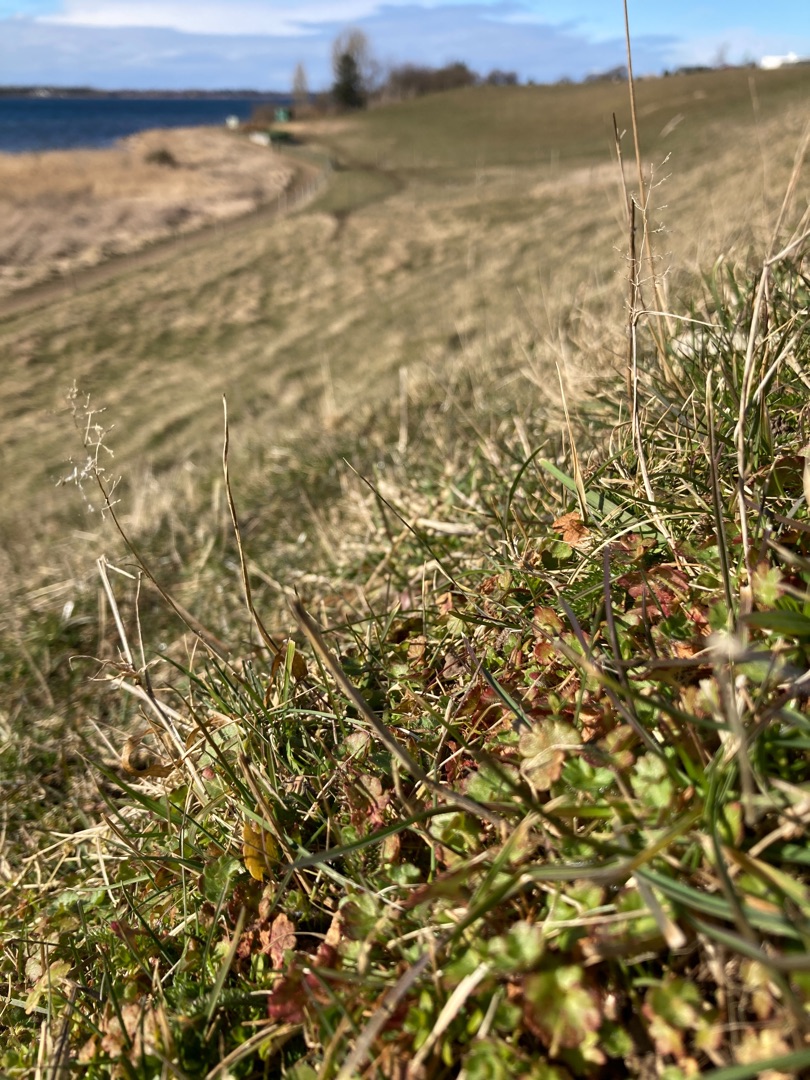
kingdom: Plantae
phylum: Tracheophyta
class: Magnoliopsida
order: Saxifragales
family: Saxifragaceae
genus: Saxifraga
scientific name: Saxifraga granulata
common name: Kornet stenbræk
